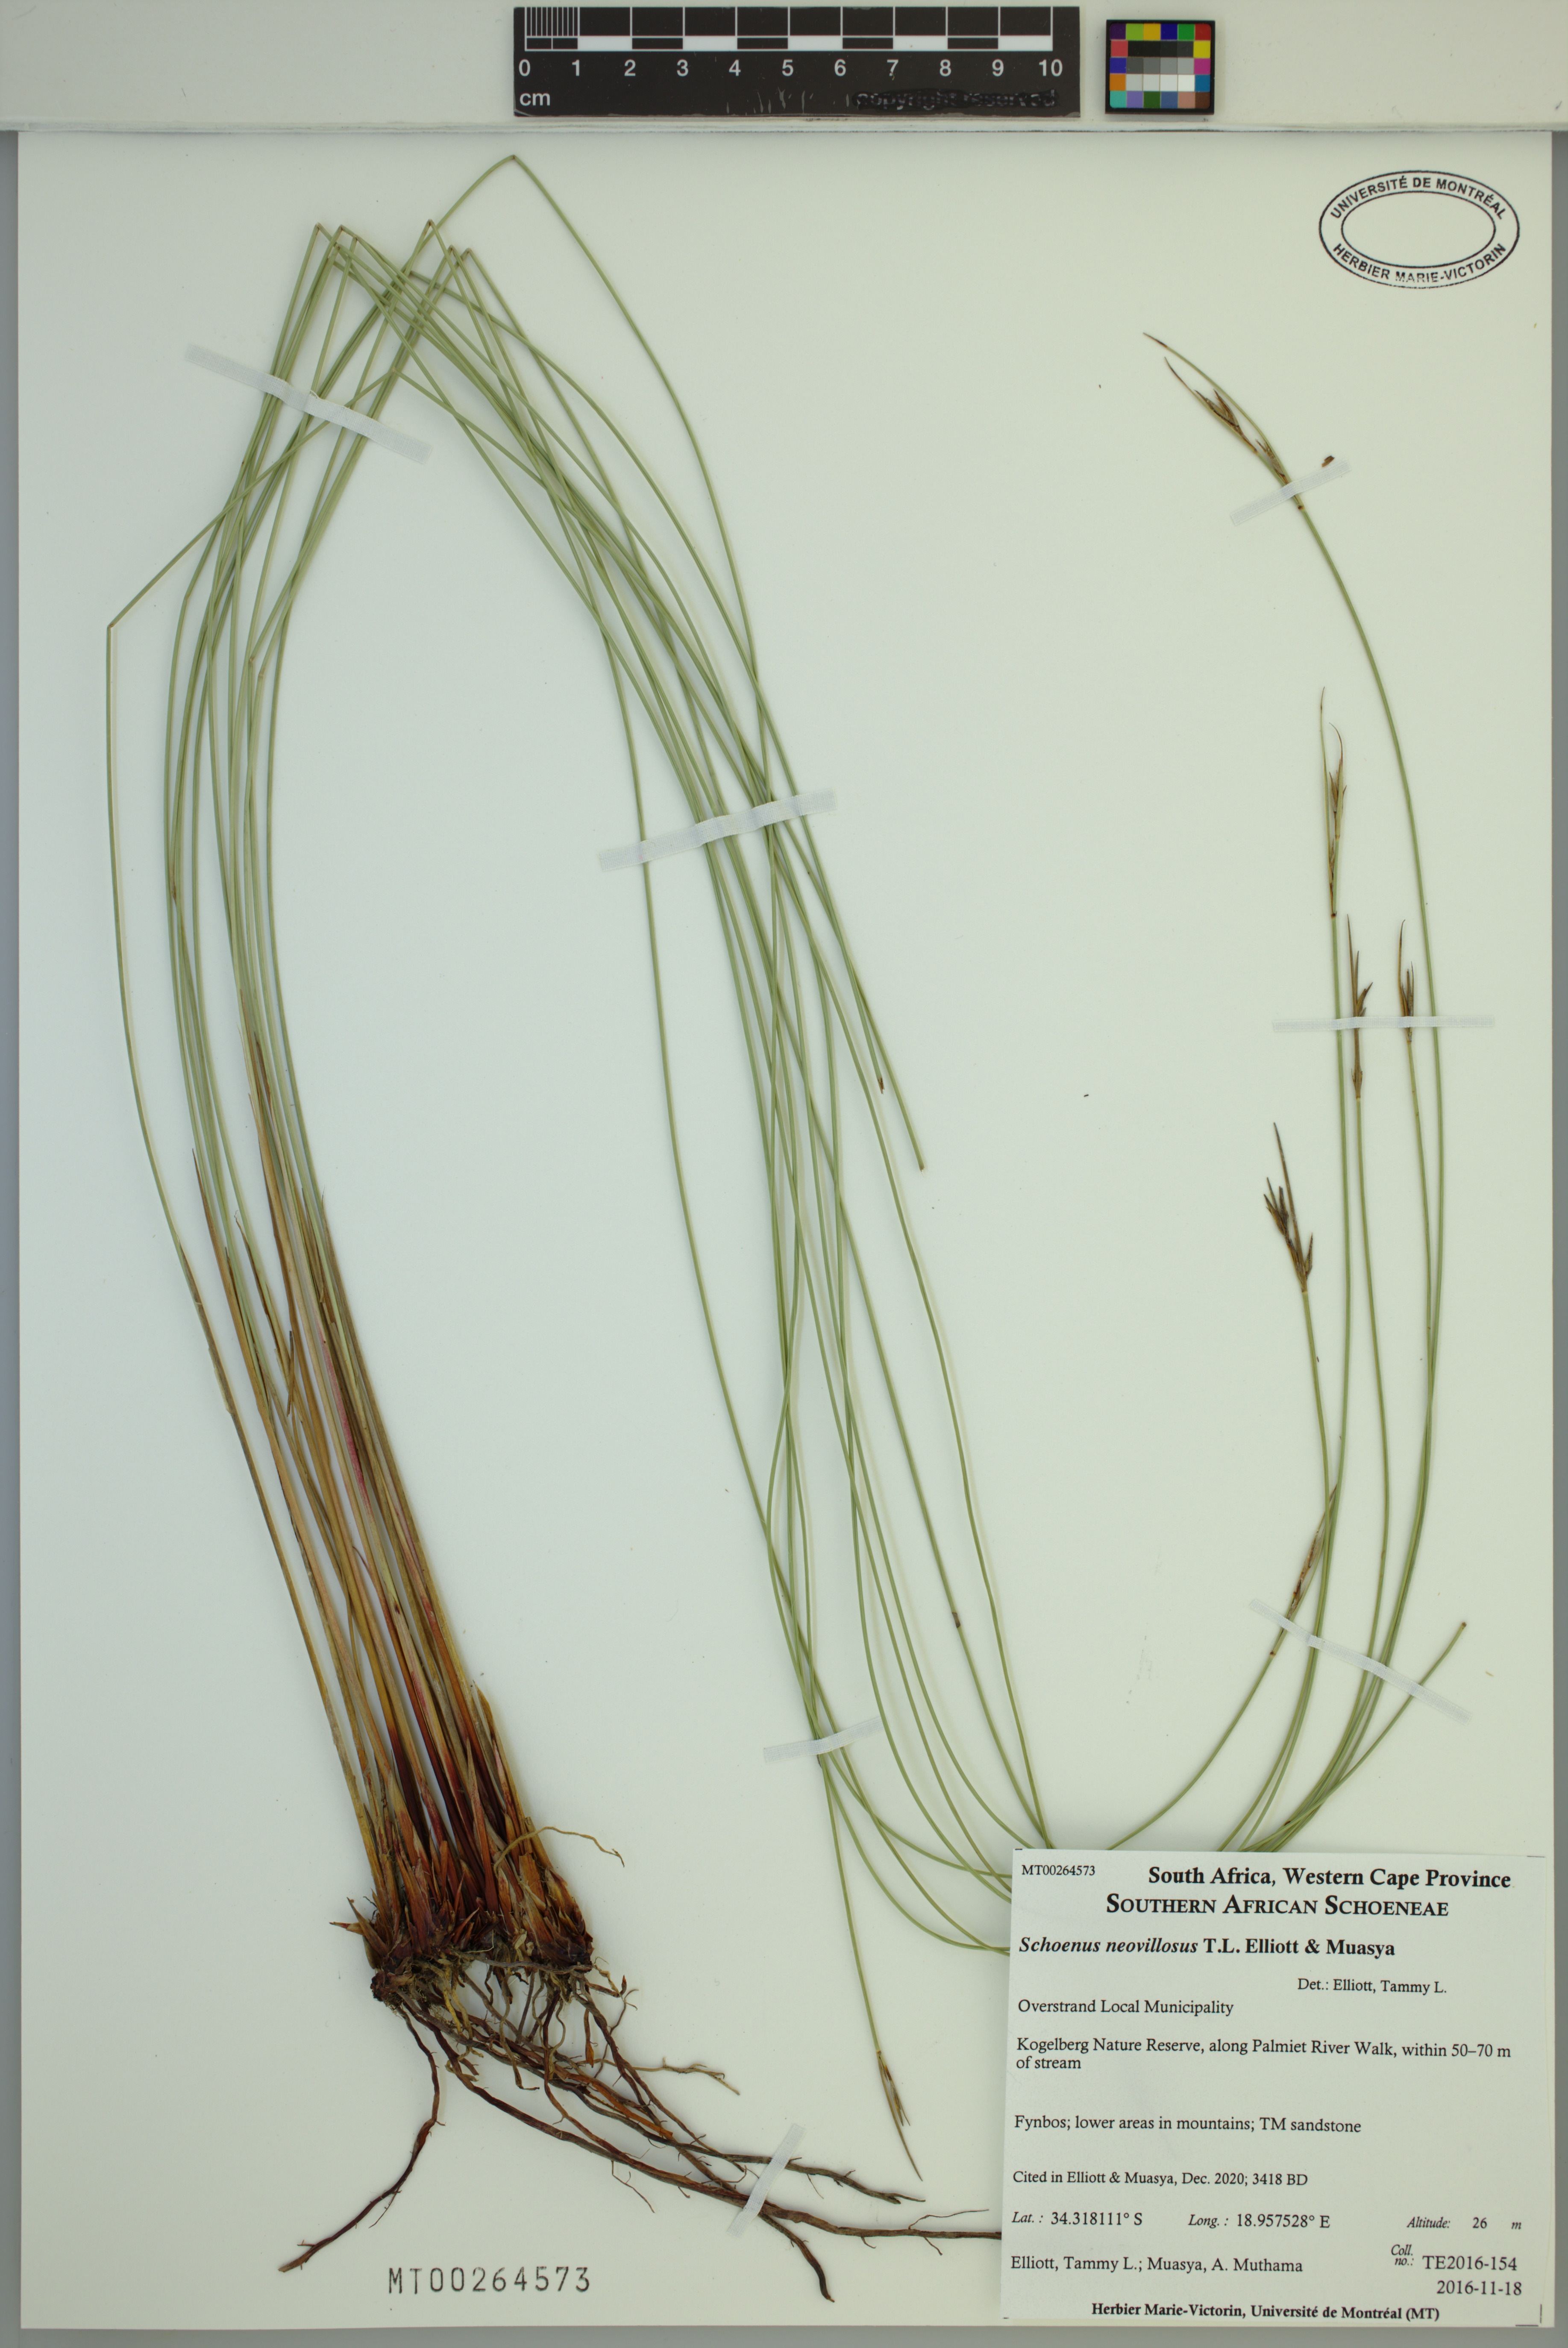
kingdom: Plantae
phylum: Tracheophyta
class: Liliopsida
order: Poales
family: Cyperaceae
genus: Schoenus
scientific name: Schoenus neovillosus
